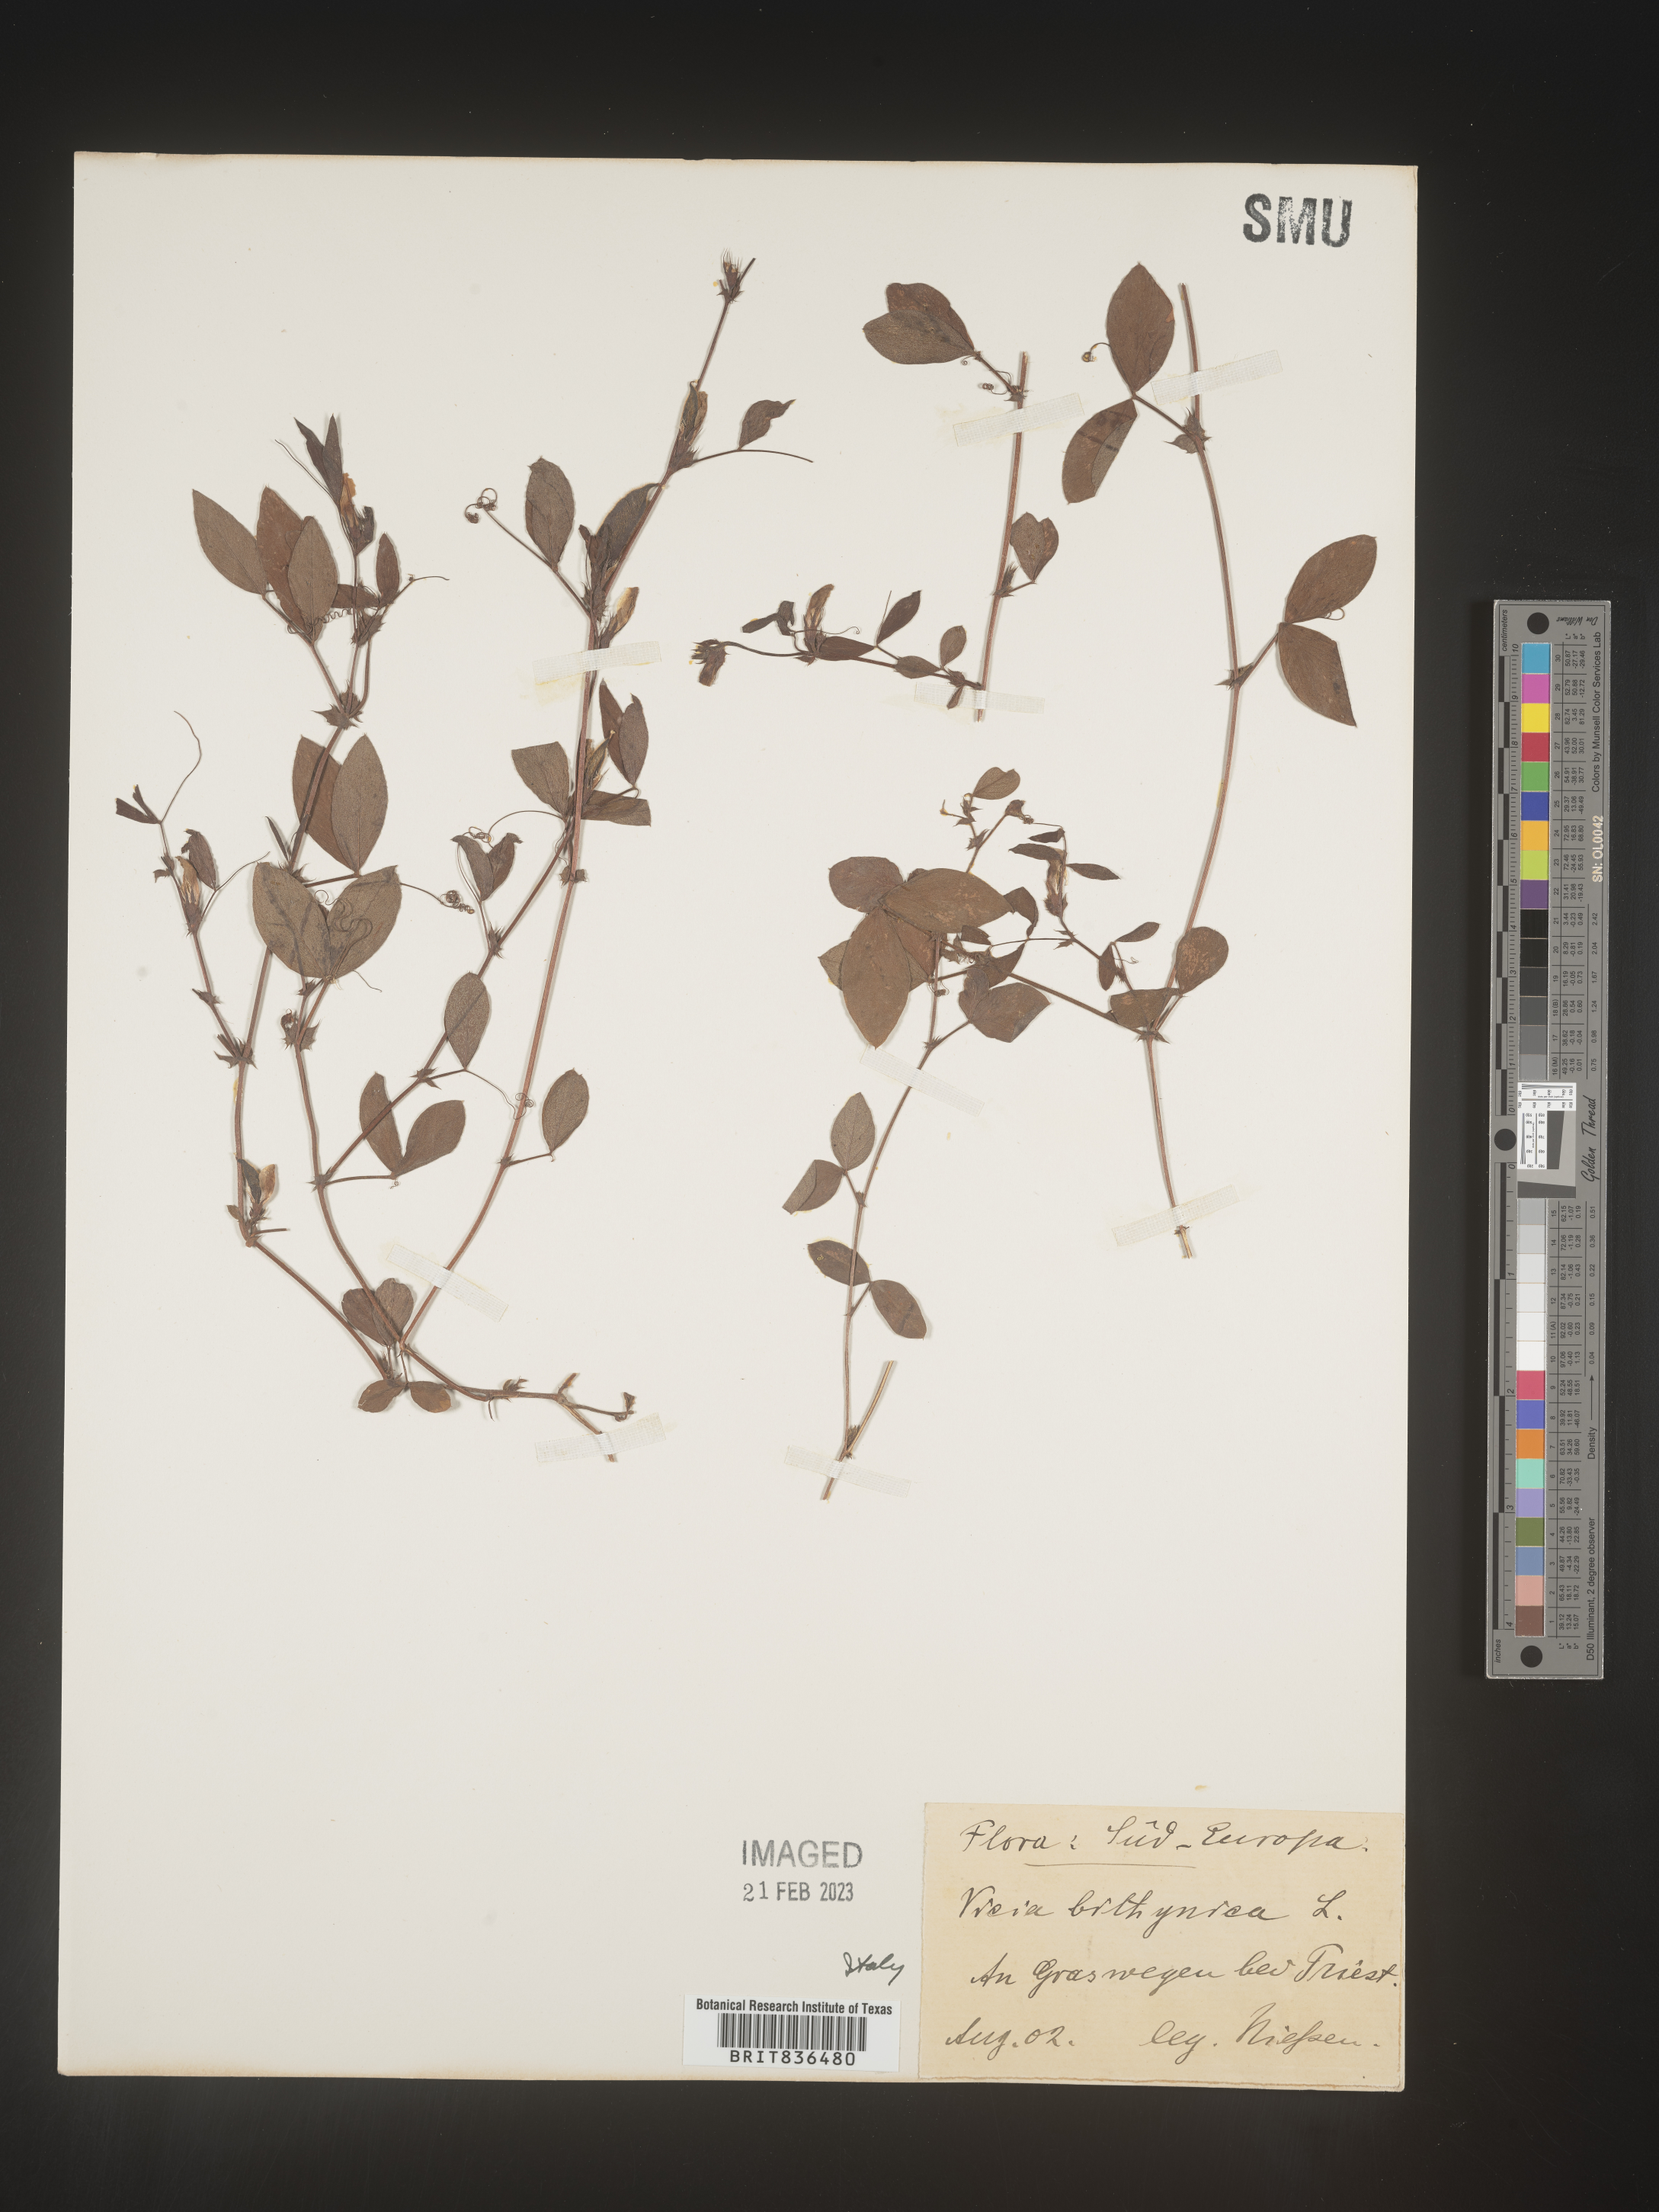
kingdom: Plantae
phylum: Tracheophyta
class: Magnoliopsida
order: Fabales
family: Fabaceae
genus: Vicia
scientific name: Vicia
